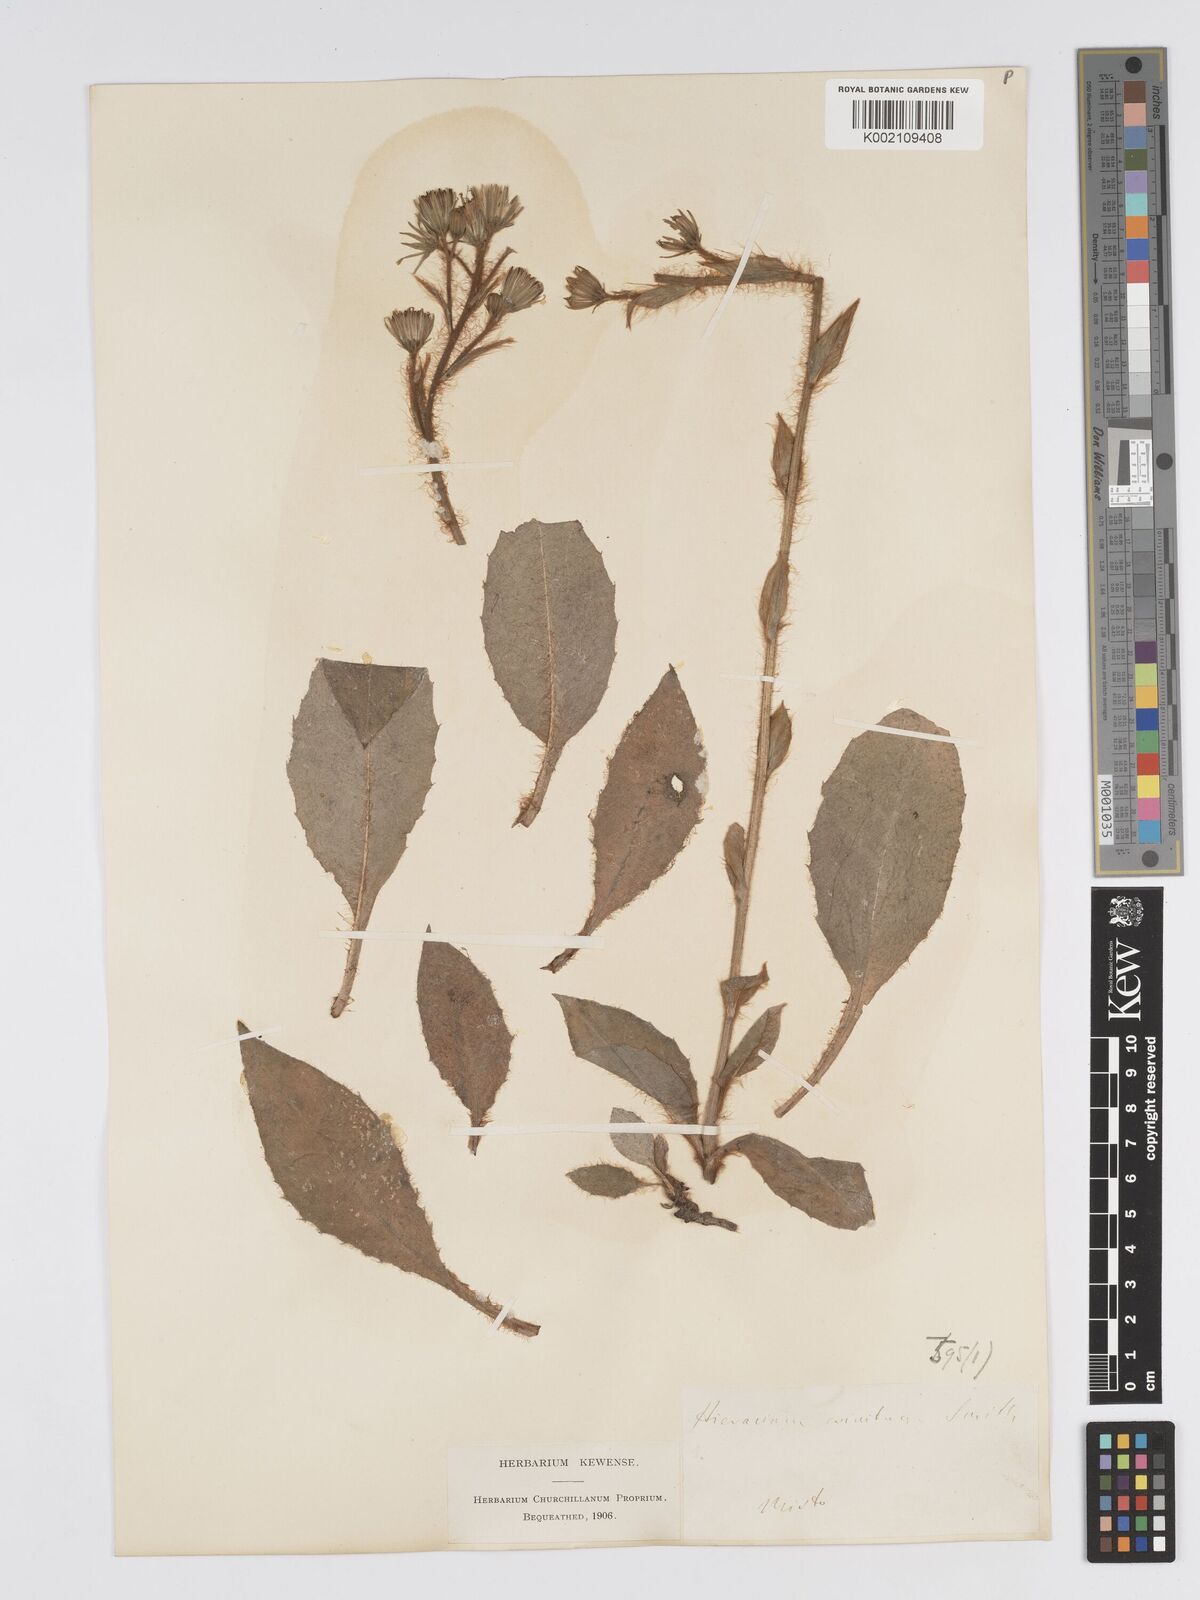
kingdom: Plantae
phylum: Tracheophyta
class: Magnoliopsida
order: Asterales
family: Asteraceae
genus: Hieracium
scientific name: Hieracium racemosum
